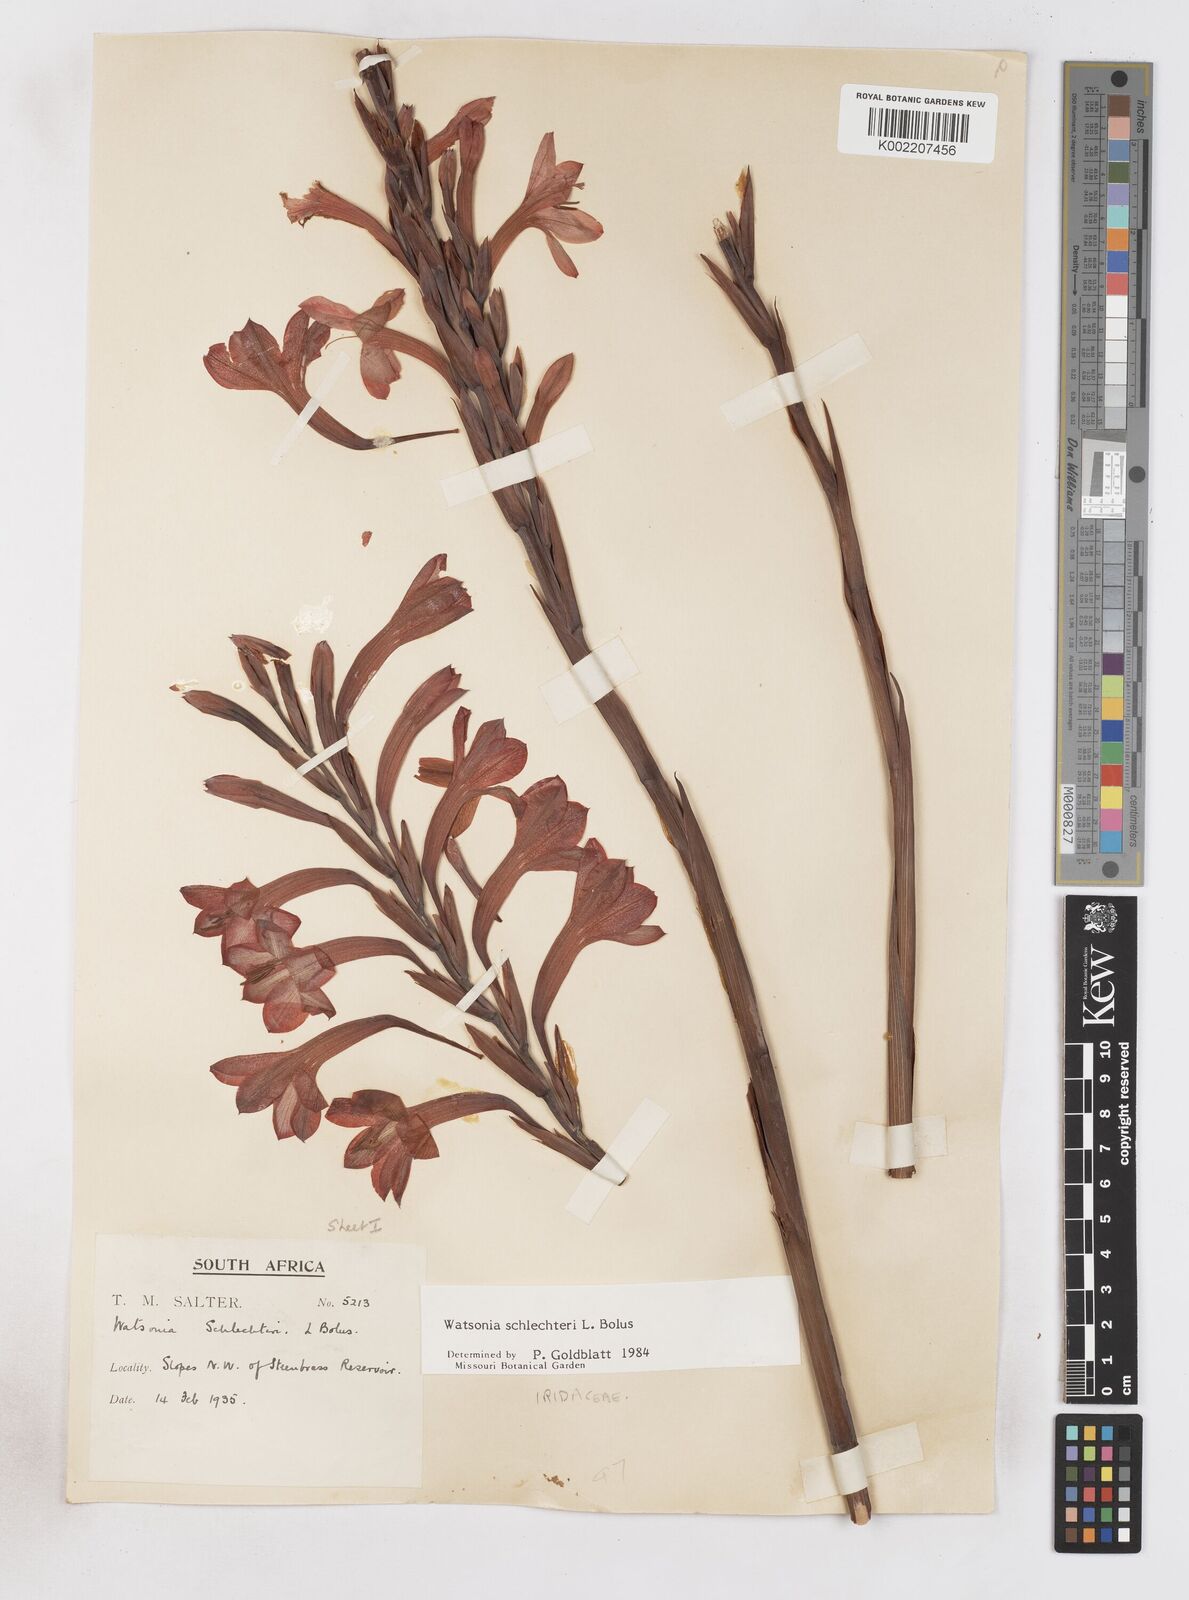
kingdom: Plantae
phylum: Tracheophyta
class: Liliopsida
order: Asparagales
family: Iridaceae
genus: Watsonia
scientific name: Watsonia schlechteri
